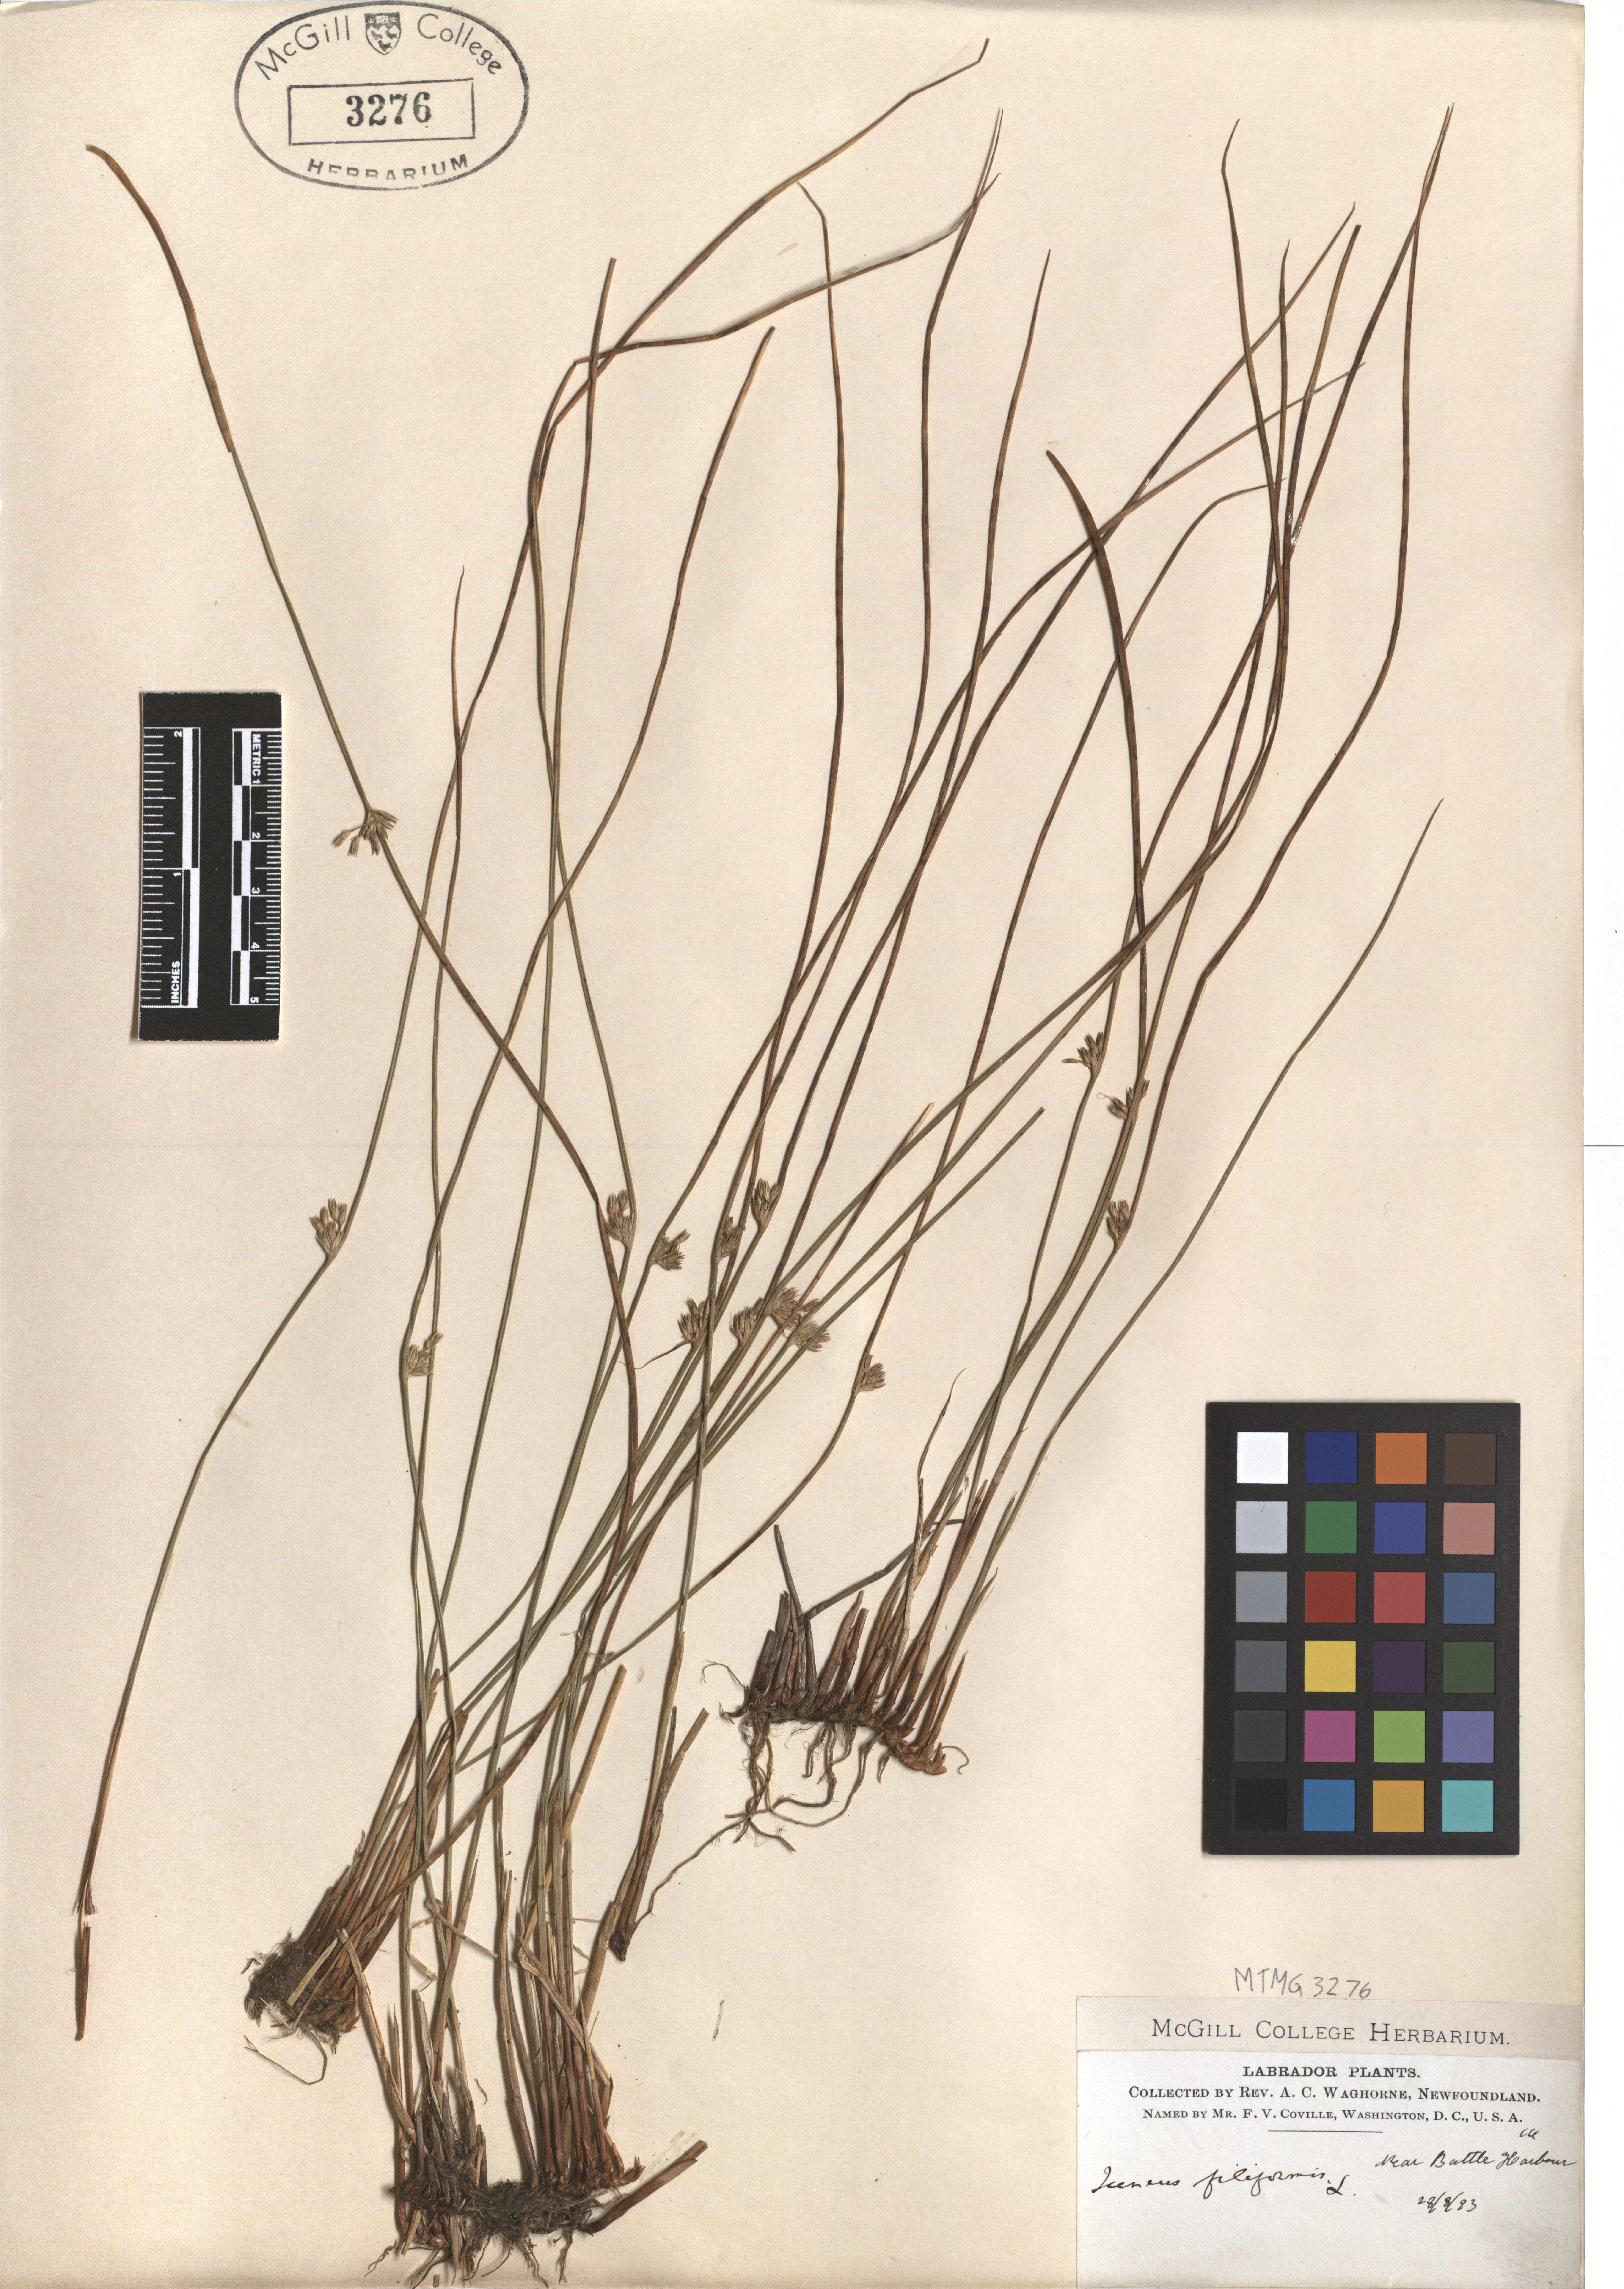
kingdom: Plantae
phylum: Tracheophyta
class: Liliopsida
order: Poales
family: Juncaceae
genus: Juncus
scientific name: Juncus filiformis
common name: Thread rush
